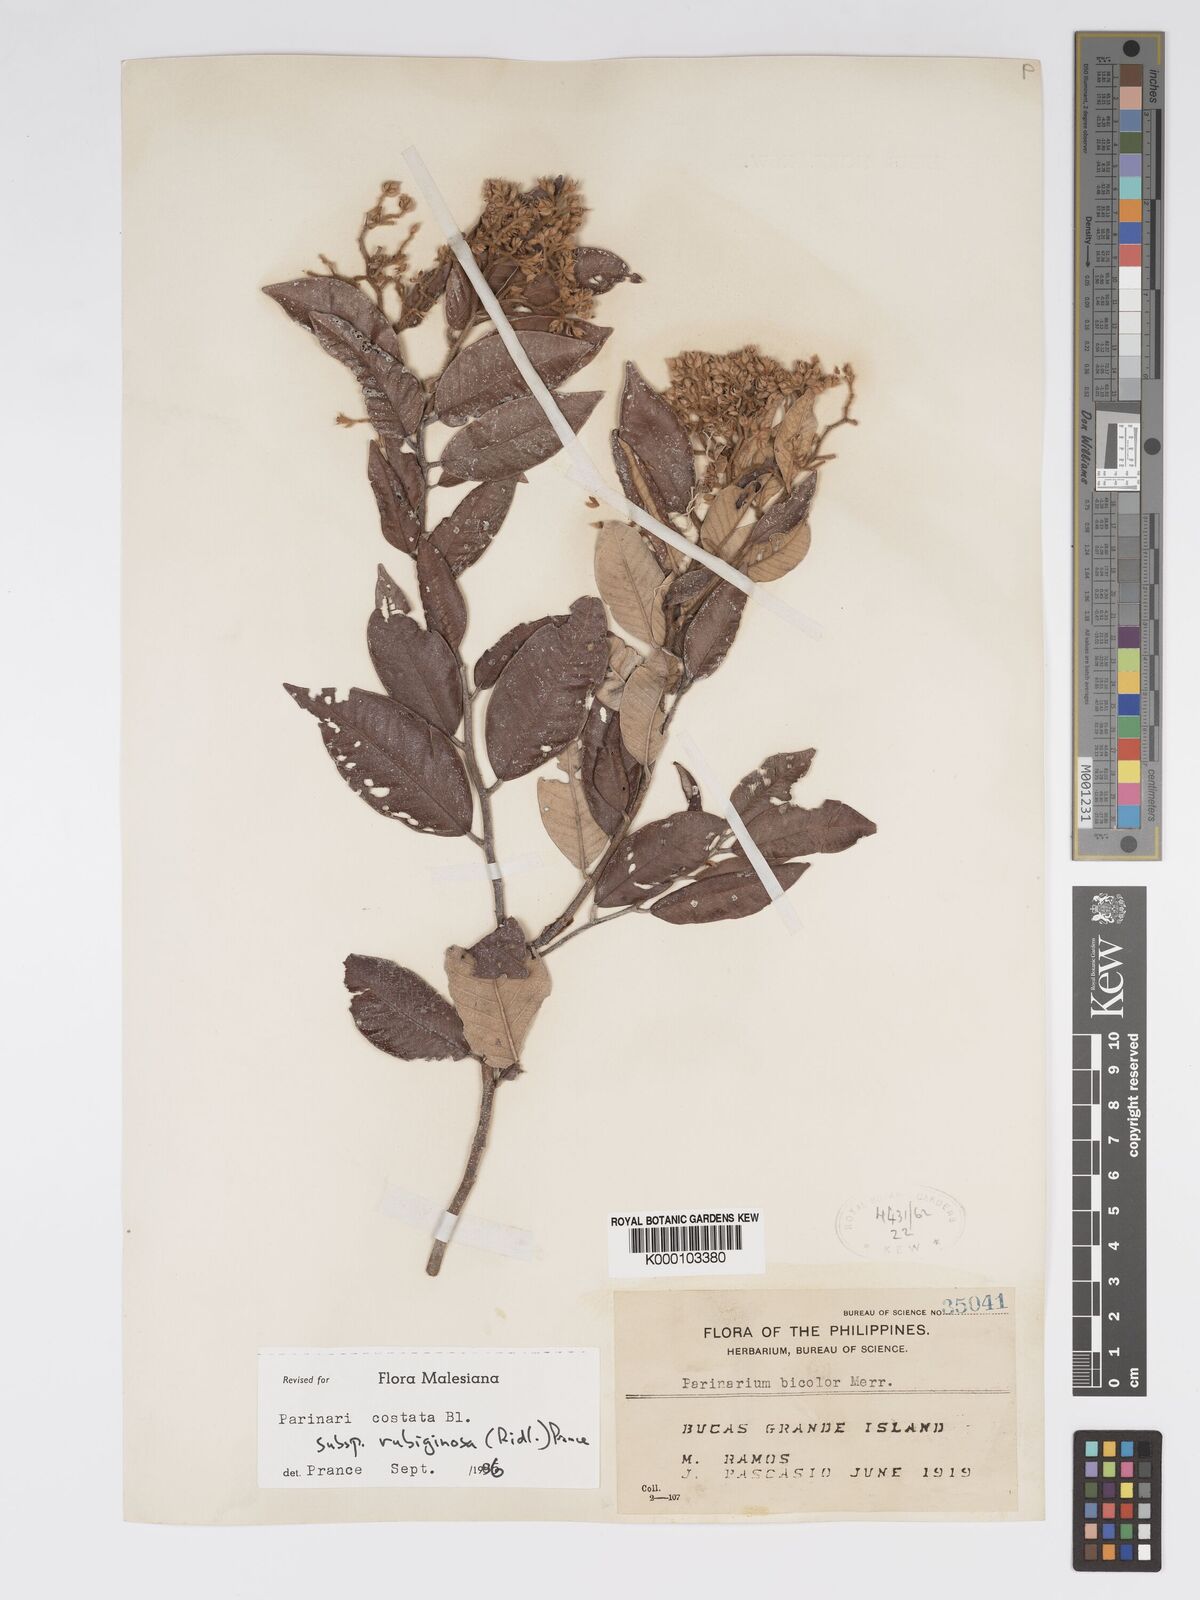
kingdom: Plantae
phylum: Tracheophyta
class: Magnoliopsida
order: Malpighiales
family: Chrysobalanaceae
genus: Parinari
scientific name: Parinari costata
